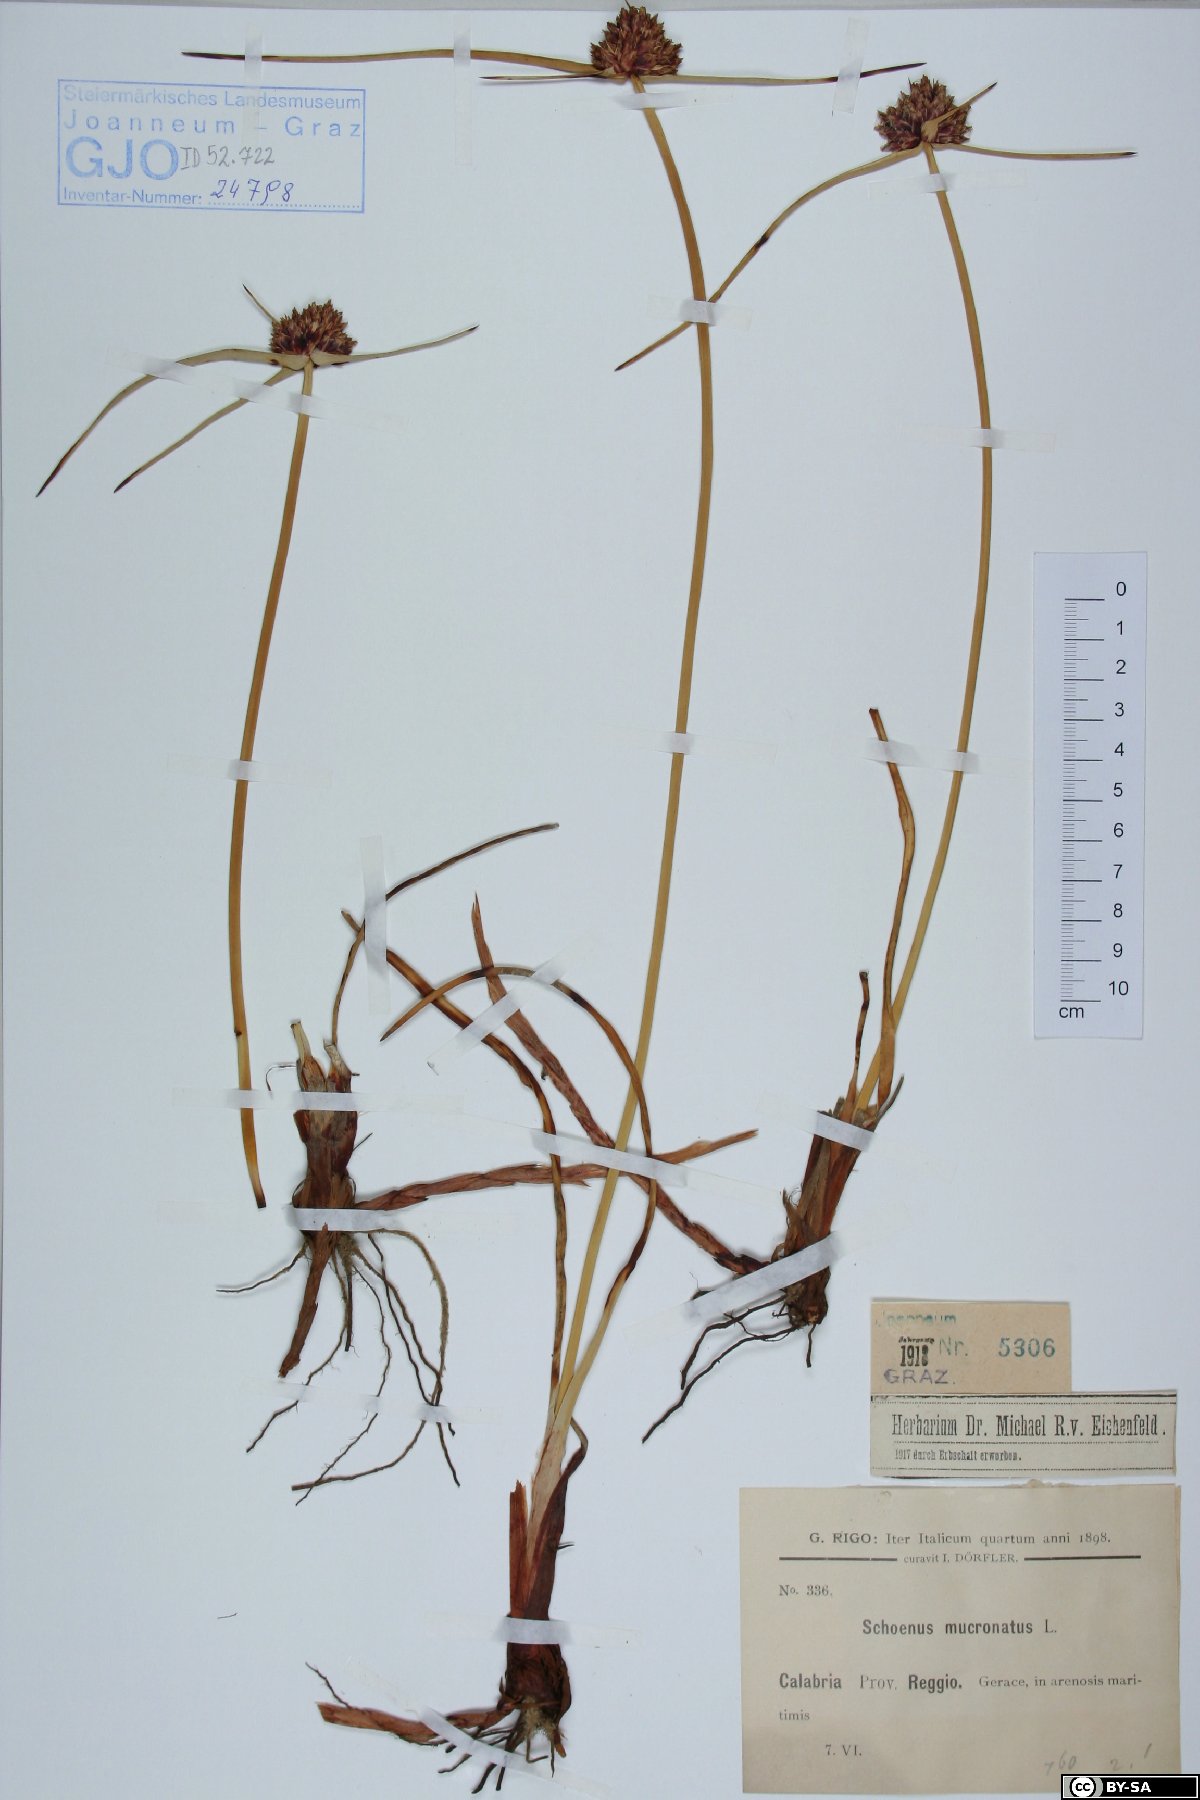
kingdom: Plantae
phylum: Tracheophyta
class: Liliopsida
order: Poales
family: Cyperaceae
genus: Cyperus
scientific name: Cyperus capitatus
